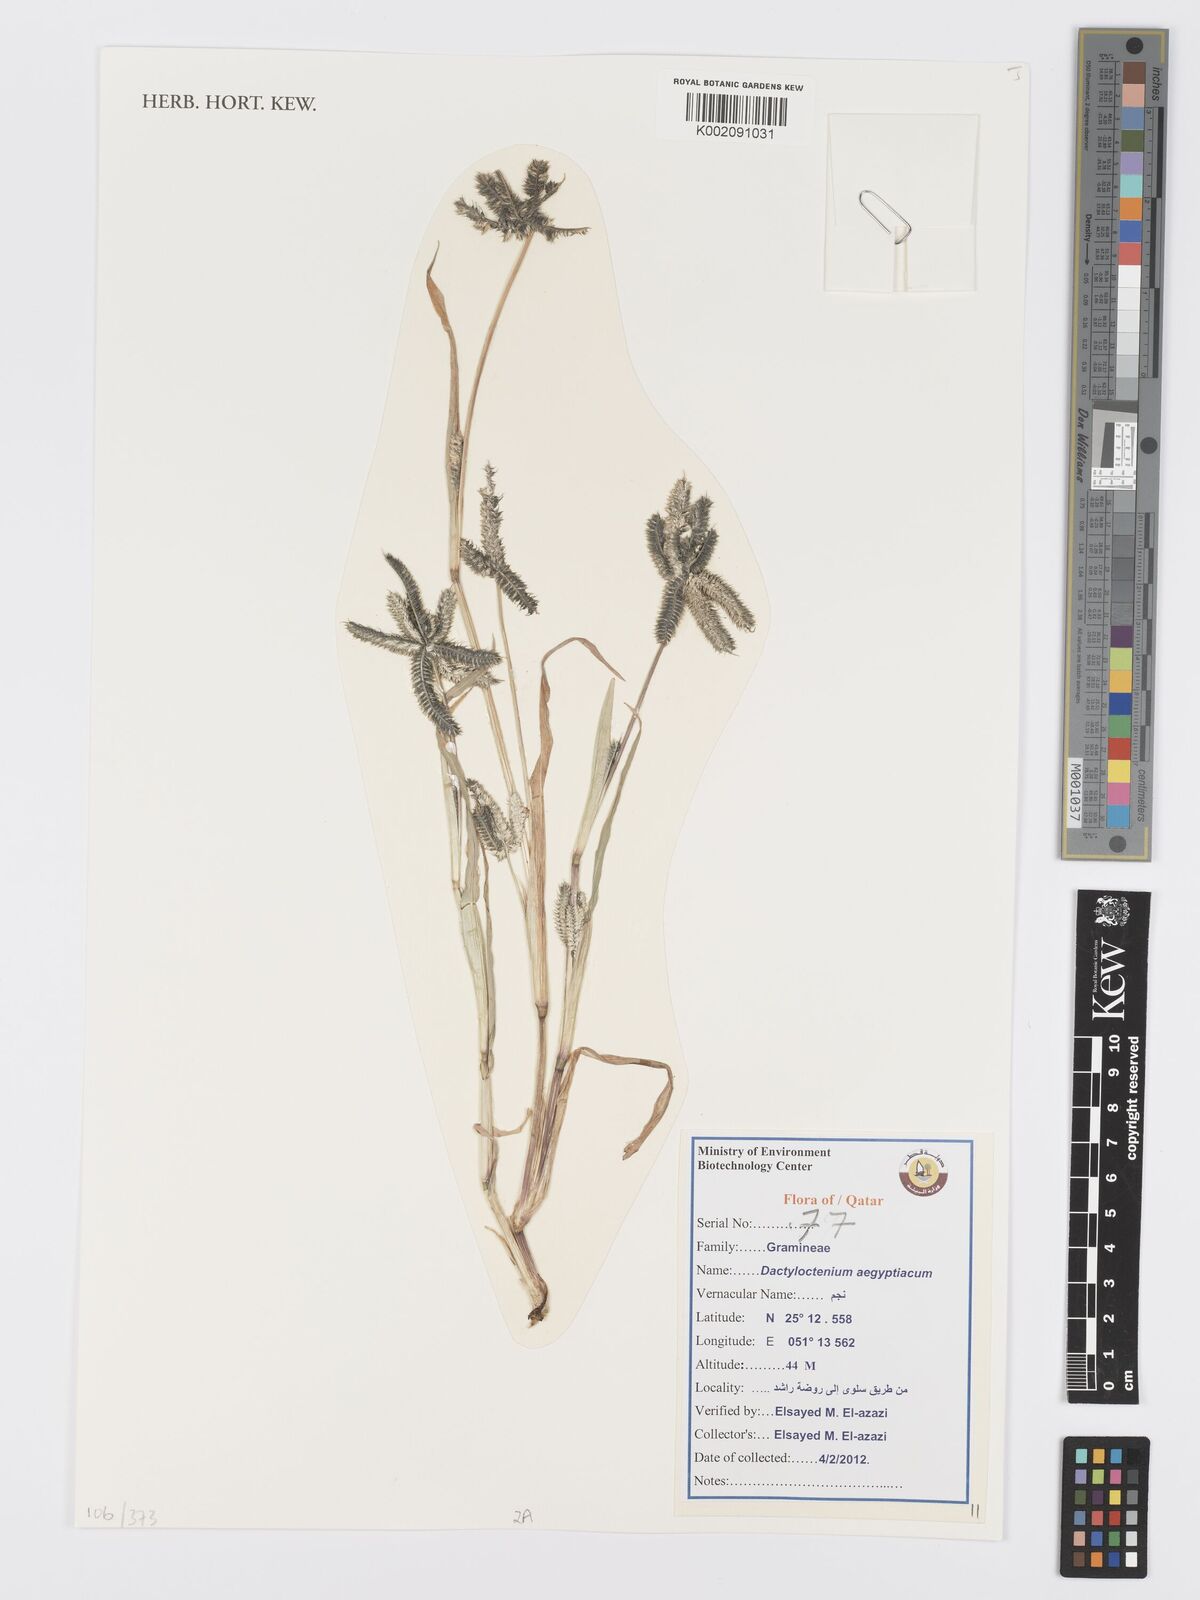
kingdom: Plantae
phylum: Tracheophyta
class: Liliopsida
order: Poales
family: Poaceae
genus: Dactyloctenium
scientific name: Dactyloctenium aegyptium
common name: Egyptian grass
